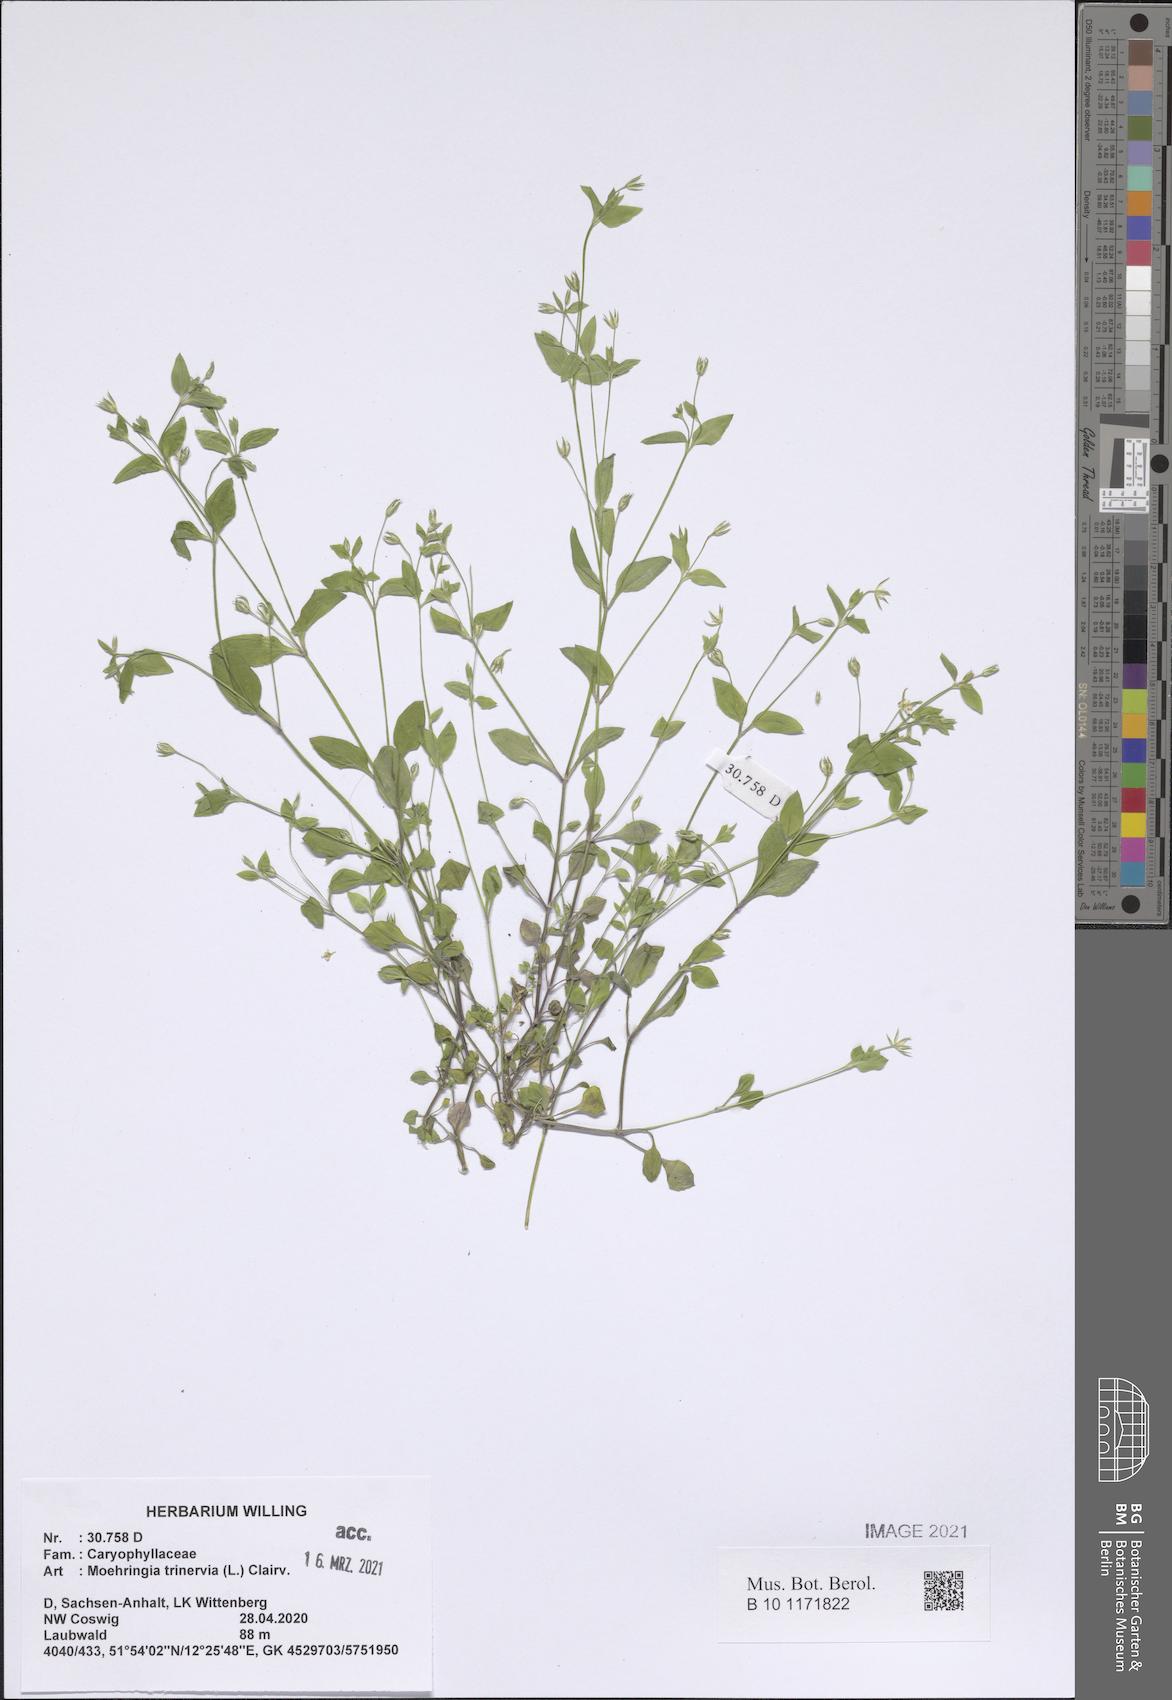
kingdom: Plantae
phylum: Tracheophyta
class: Magnoliopsida
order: Caryophyllales
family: Caryophyllaceae
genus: Moehringia
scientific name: Moehringia trinervia
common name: Three-nerved sandwort
